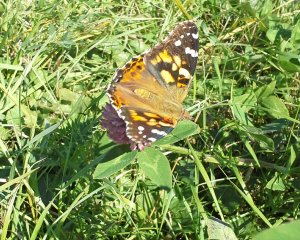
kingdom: Animalia
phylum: Arthropoda
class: Insecta
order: Lepidoptera
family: Nymphalidae
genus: Vanessa
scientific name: Vanessa cardui
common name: Painted Lady
